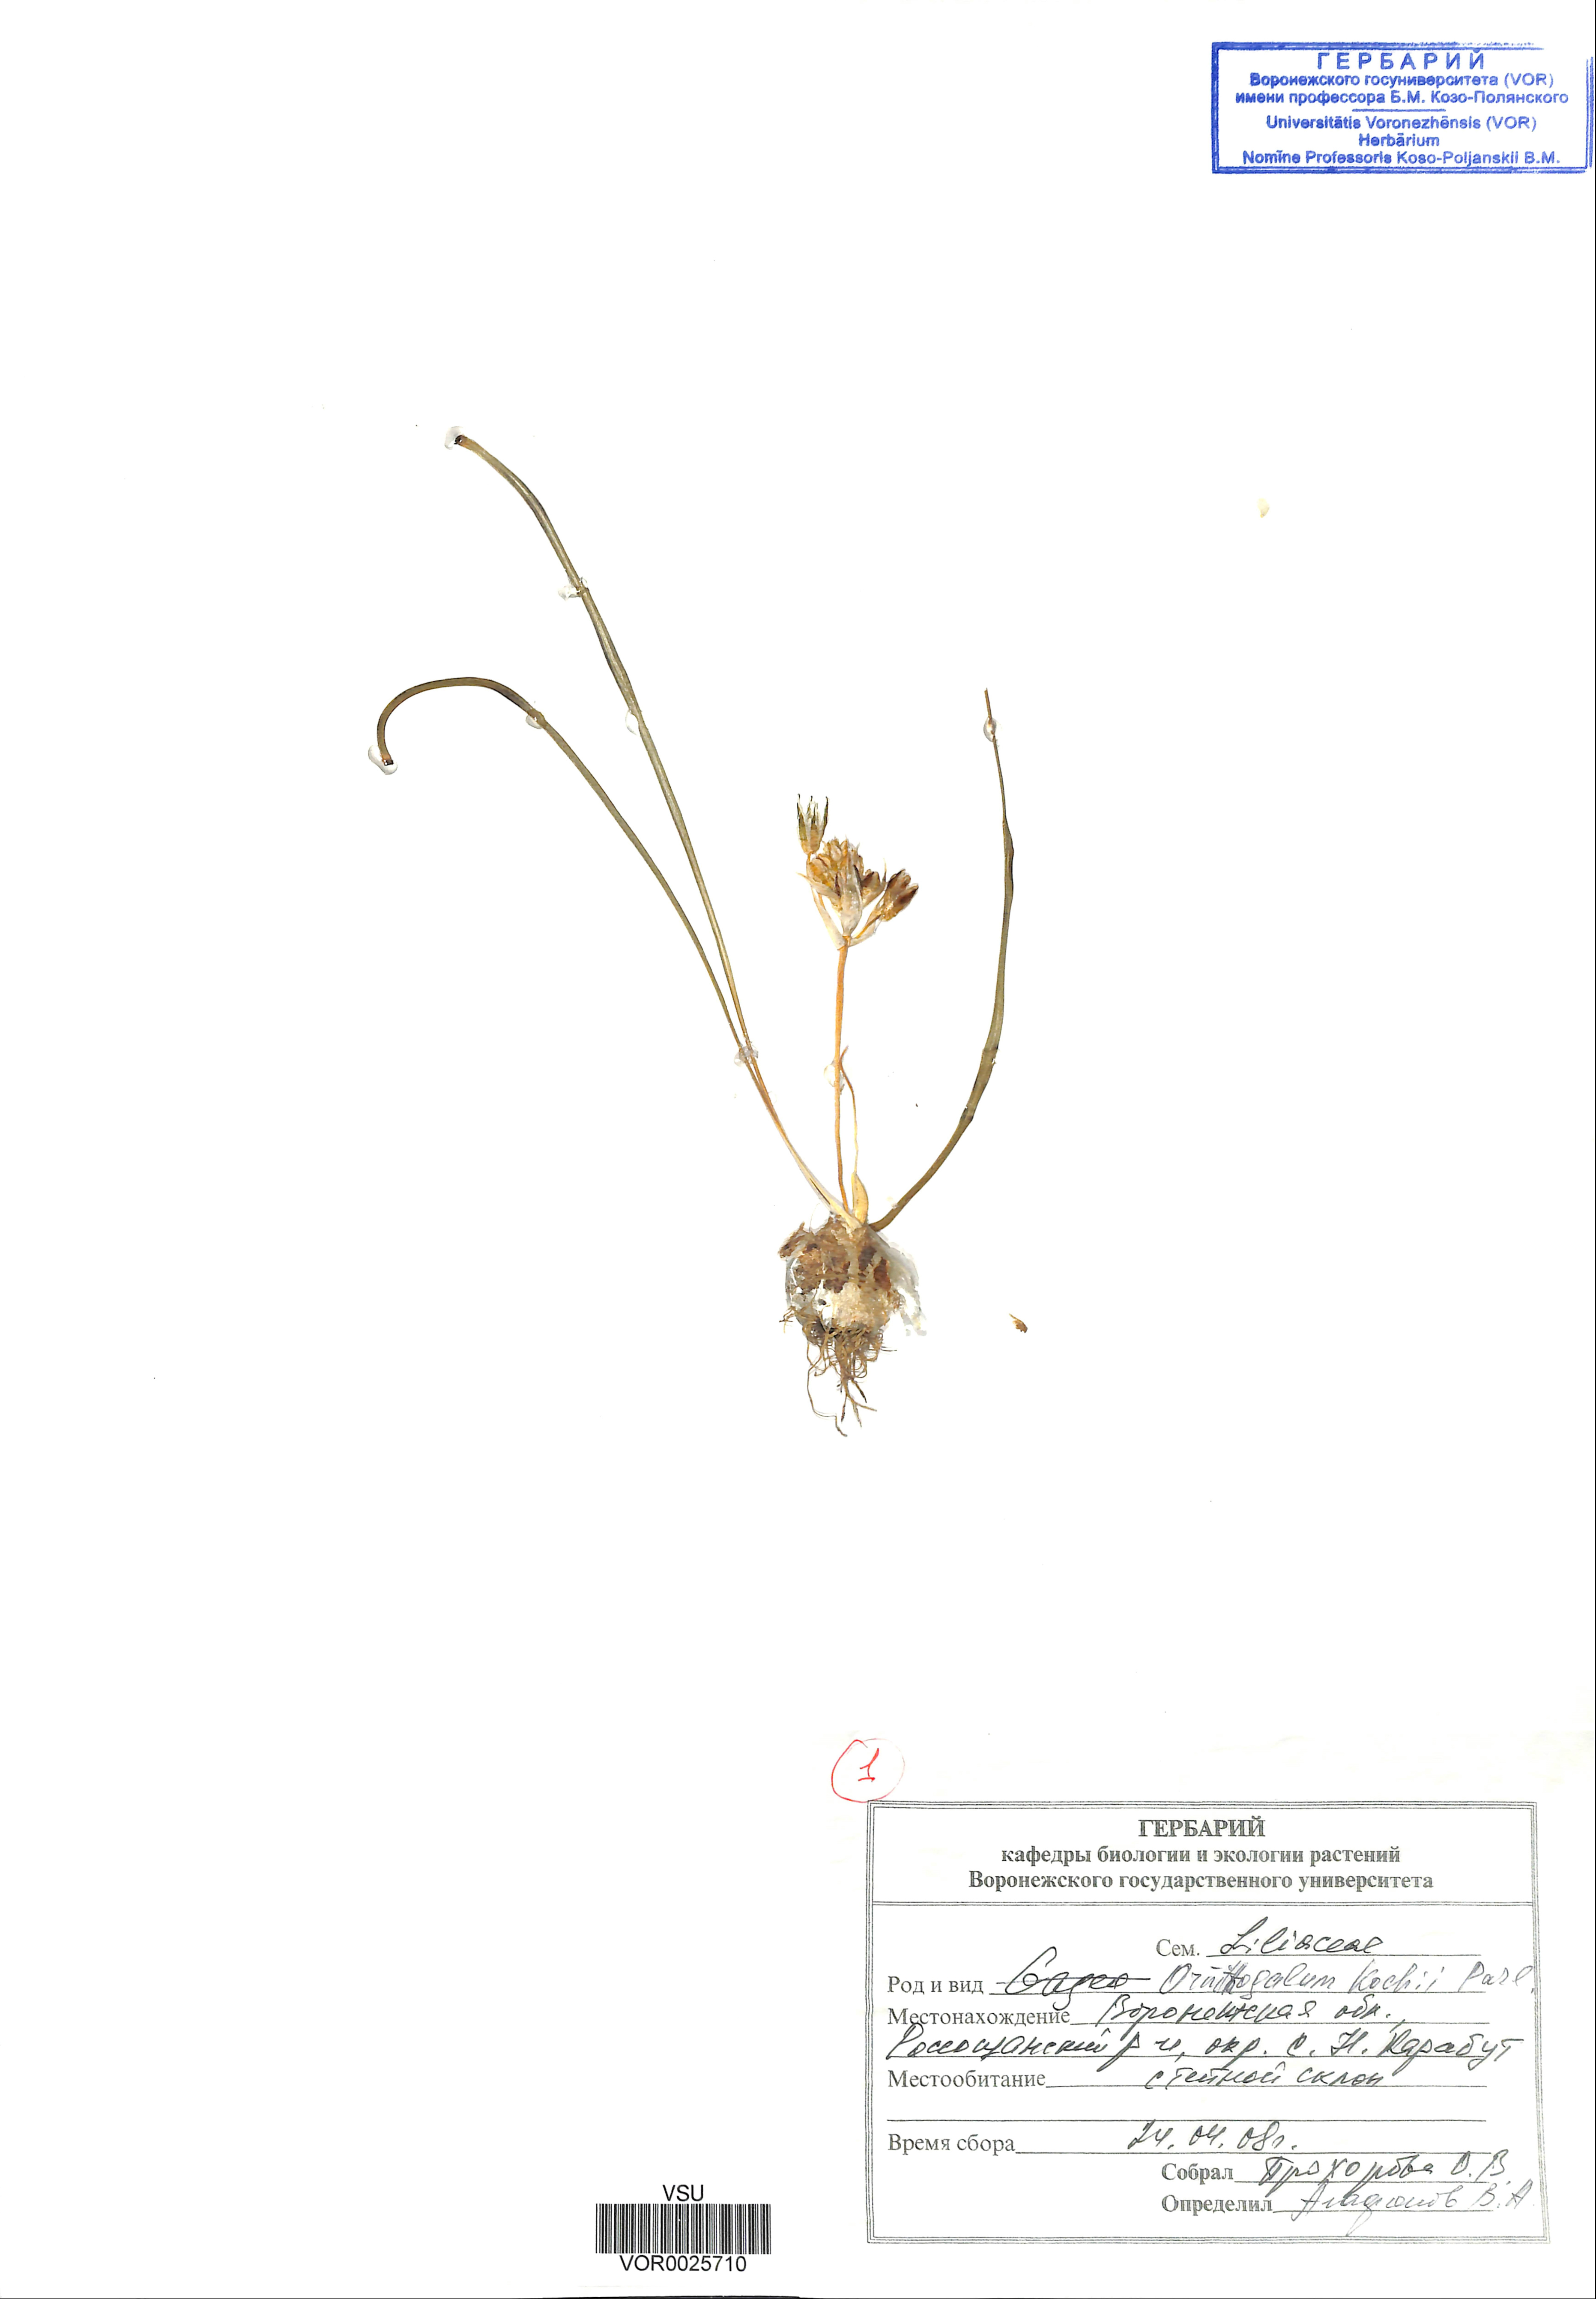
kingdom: Plantae
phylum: Tracheophyta
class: Liliopsida
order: Asparagales
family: Asparagaceae
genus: Ornithogalum
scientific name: Ornithogalum orthophyllum
